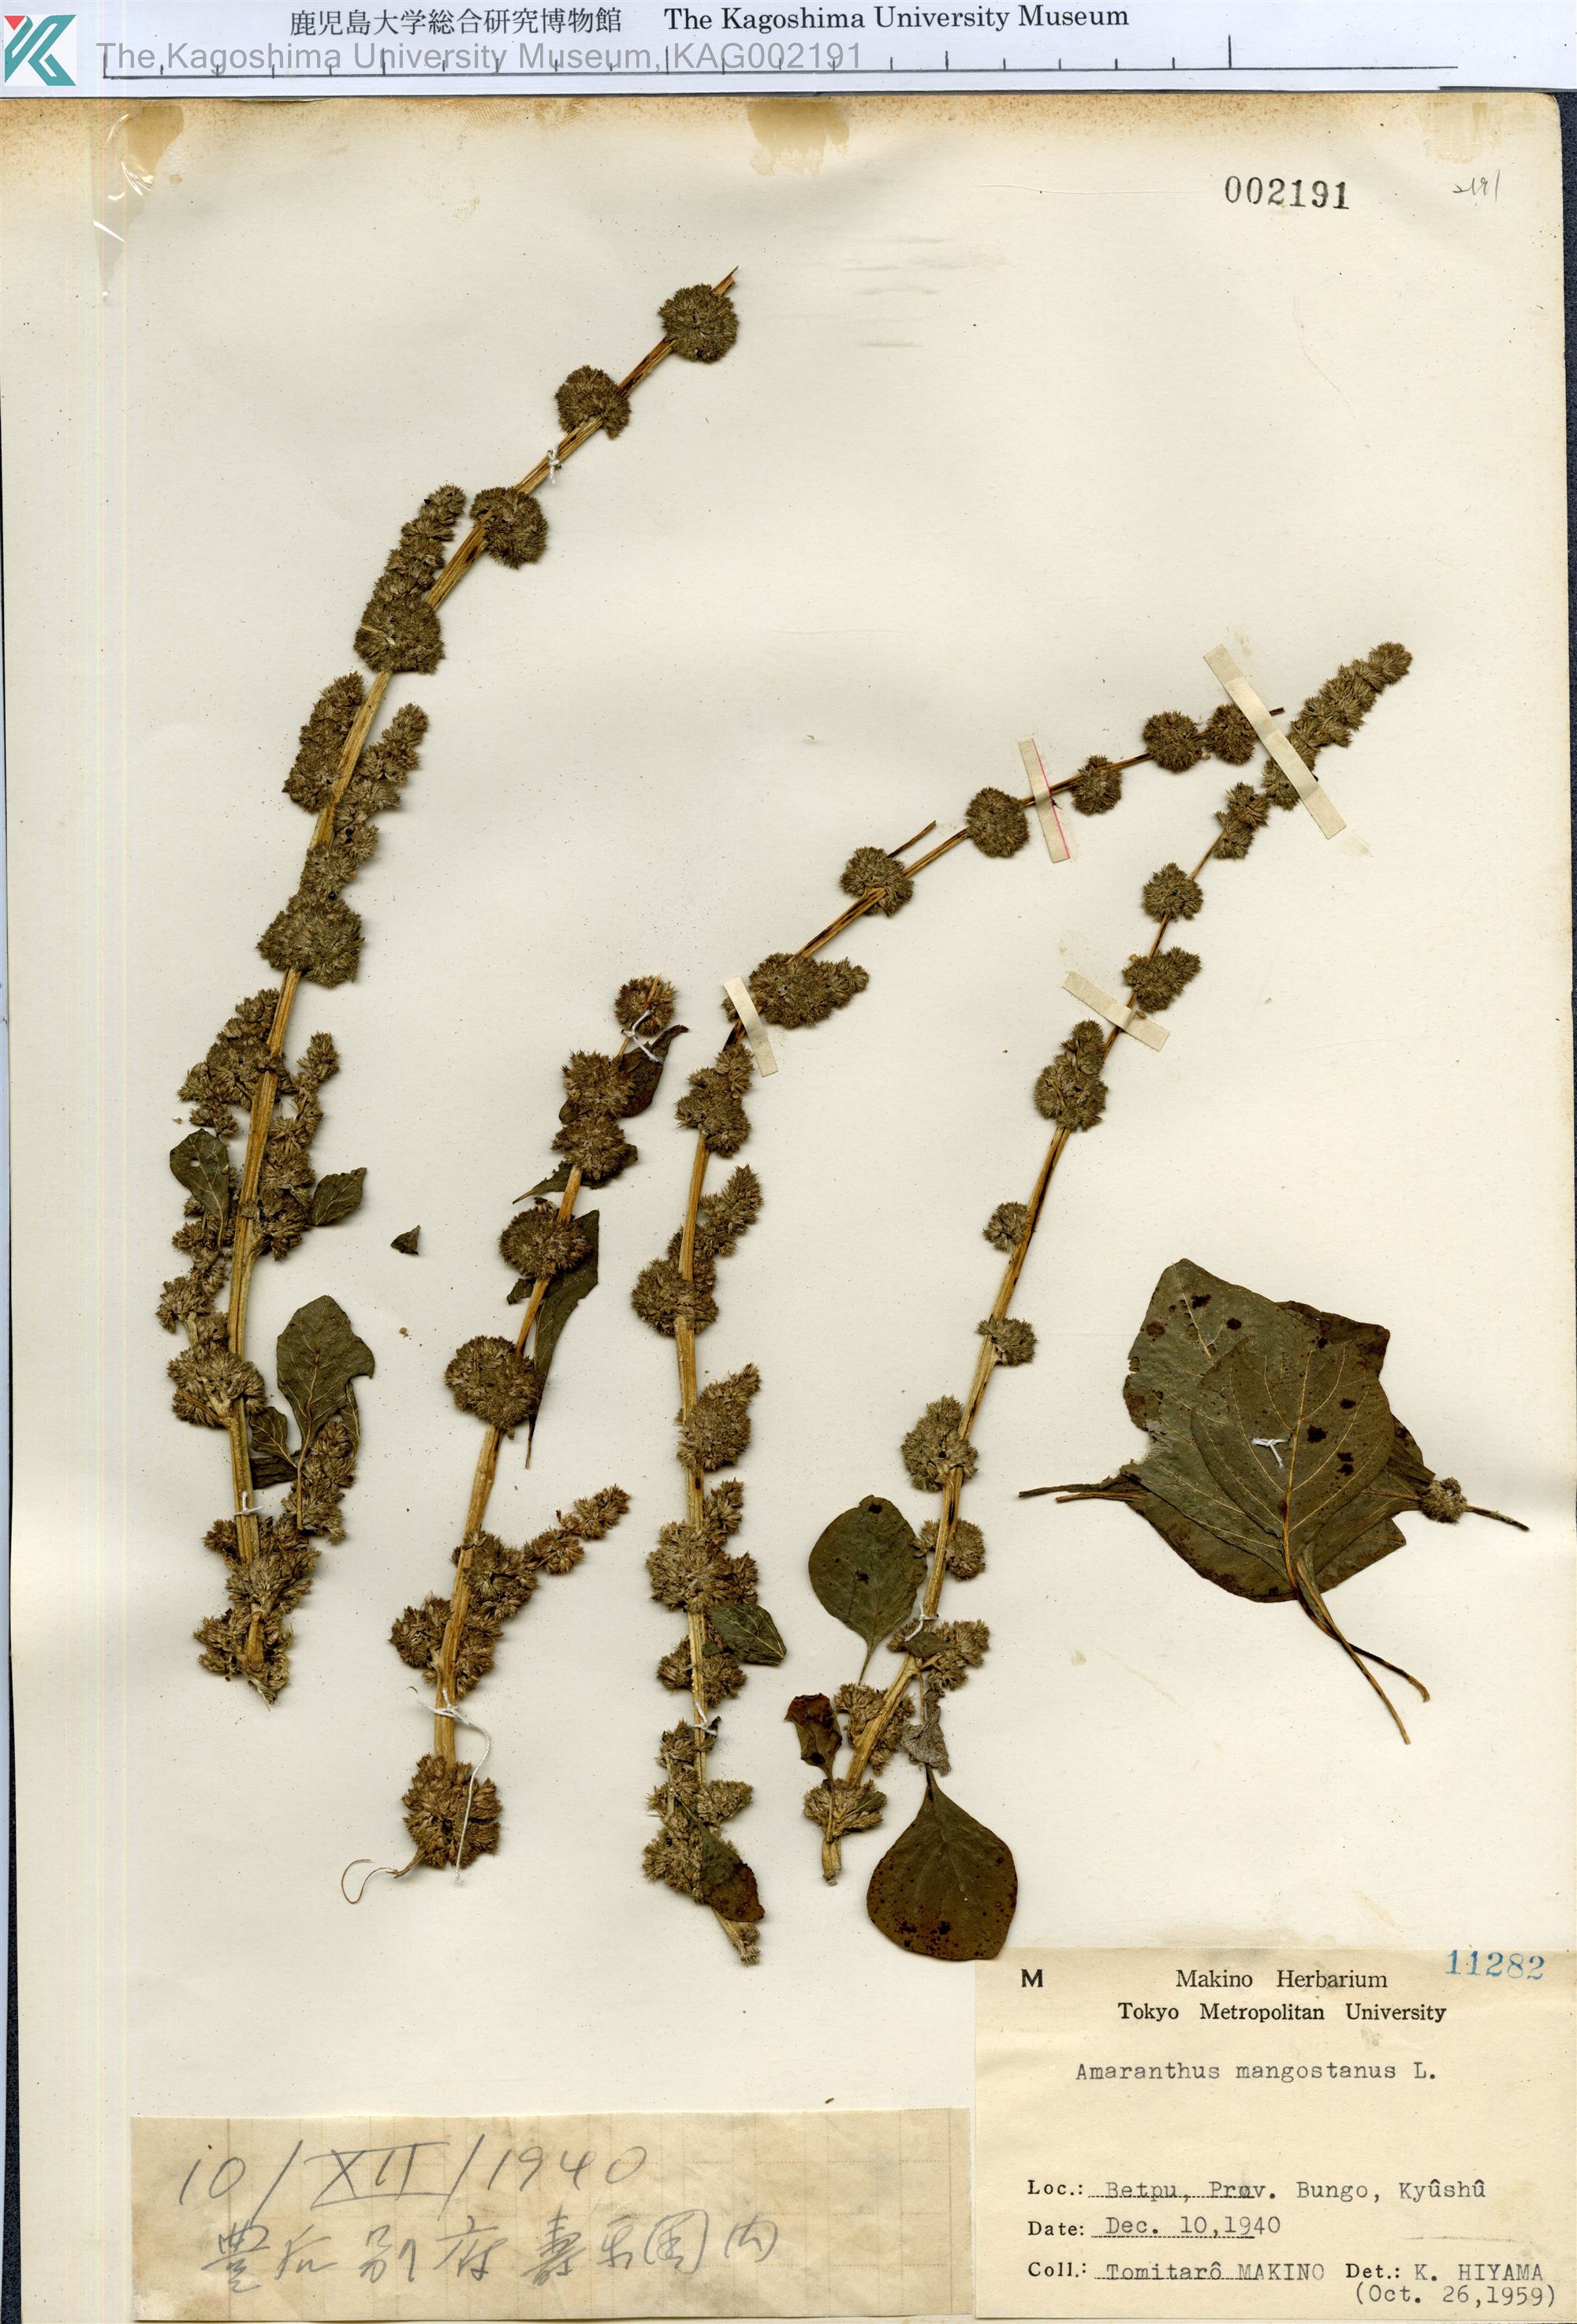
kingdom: Plantae
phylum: Tracheophyta
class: Magnoliopsida
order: Caryophyllales
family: Amaranthaceae
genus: Amaranthus
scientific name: Amaranthus tricolor
